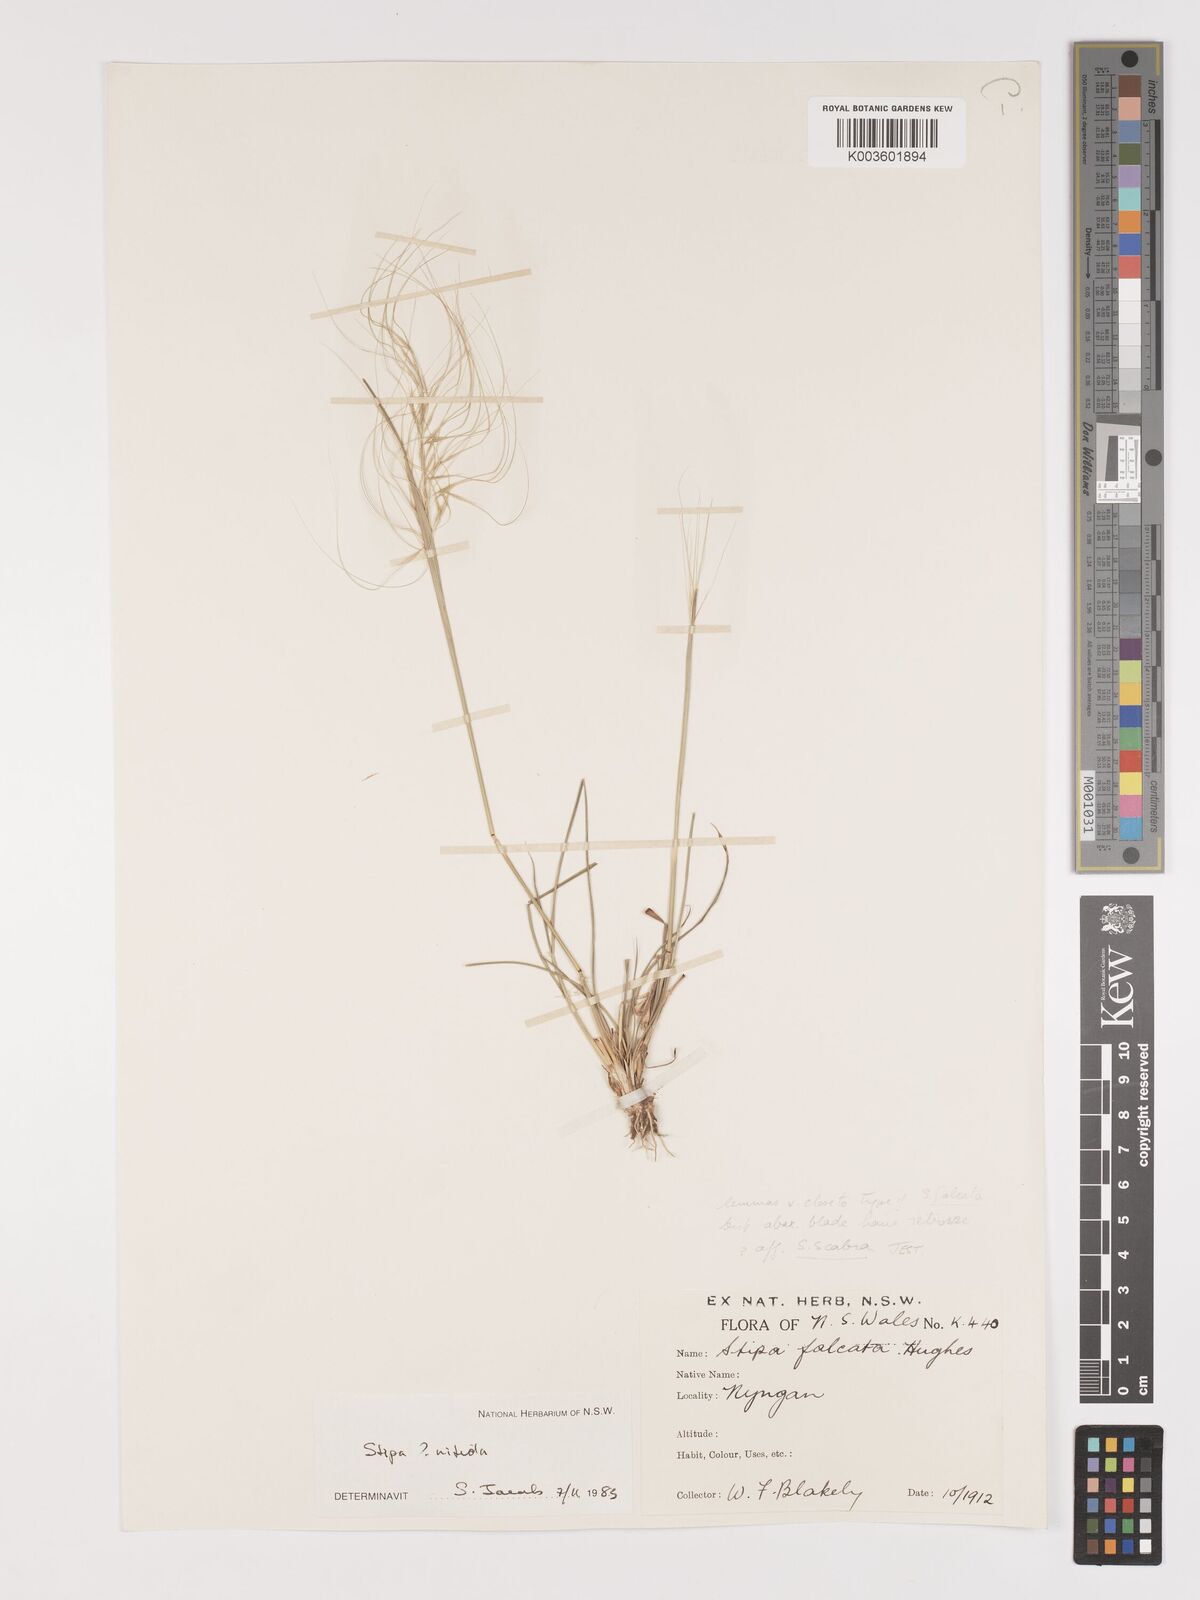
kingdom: Plantae
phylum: Tracheophyta
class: Liliopsida
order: Poales
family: Poaceae
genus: Austrostipa
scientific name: Austrostipa nitida
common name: Balcarra grass
